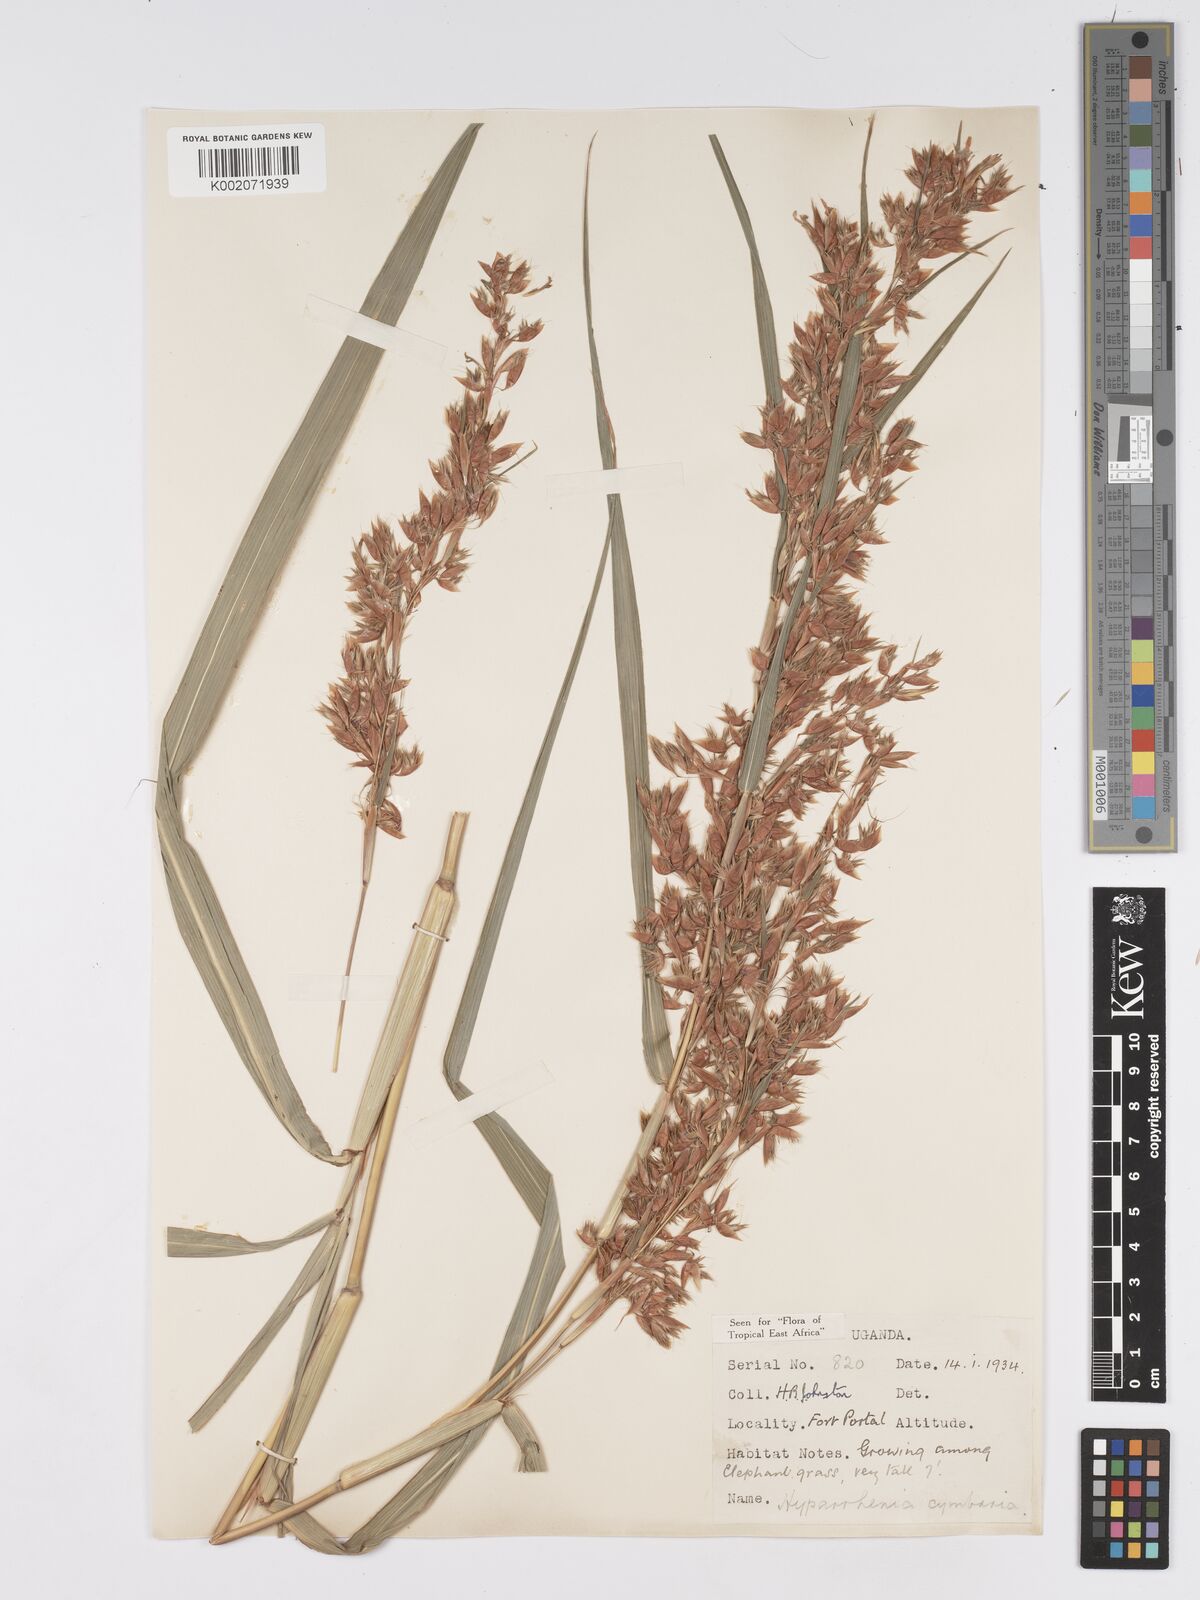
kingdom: Plantae
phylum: Tracheophyta
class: Liliopsida
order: Poales
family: Poaceae
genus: Hyparrhenia
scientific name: Hyparrhenia cymbaria
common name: Boat thatching grass
